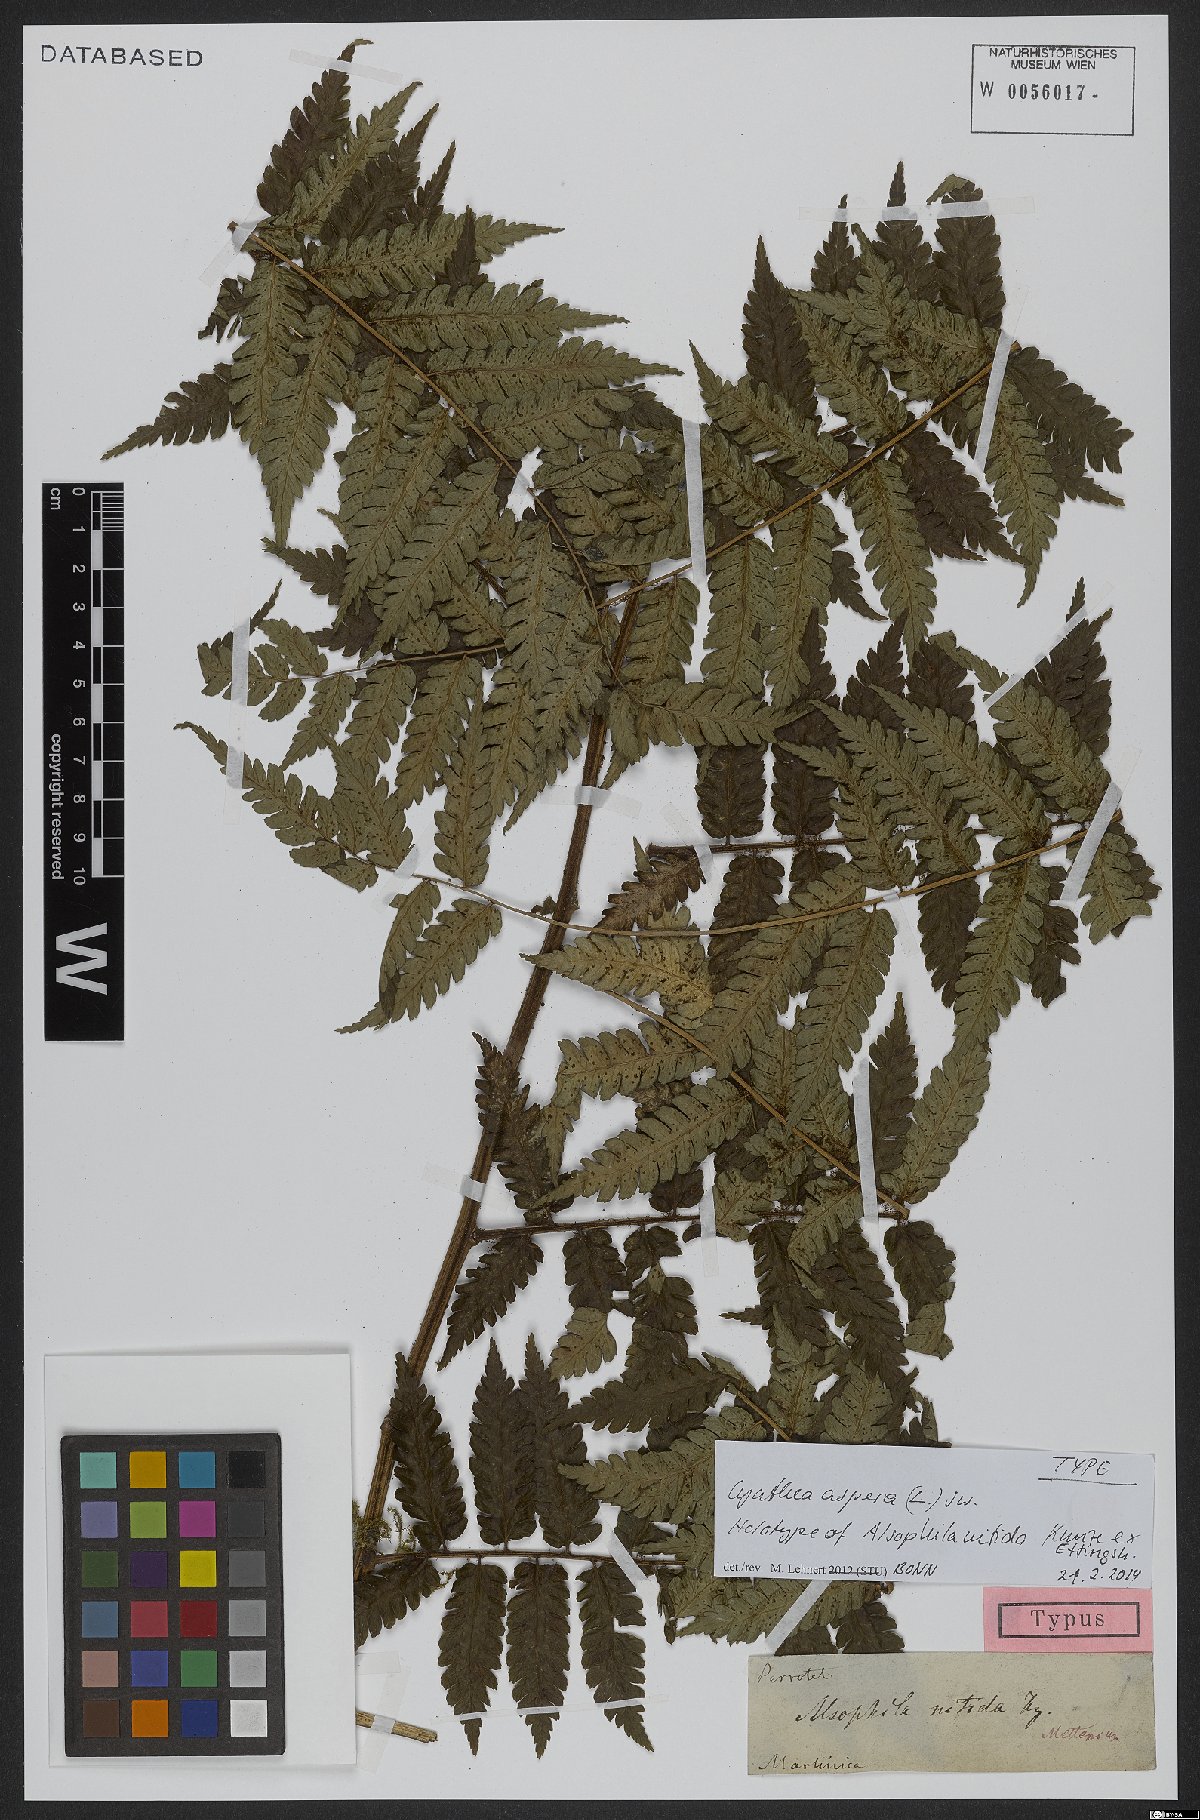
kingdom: Plantae
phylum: Tracheophyta
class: Polypodiopsida
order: Cyatheales
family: Cyatheaceae
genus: Cyathea
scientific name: Cyathea aspera
